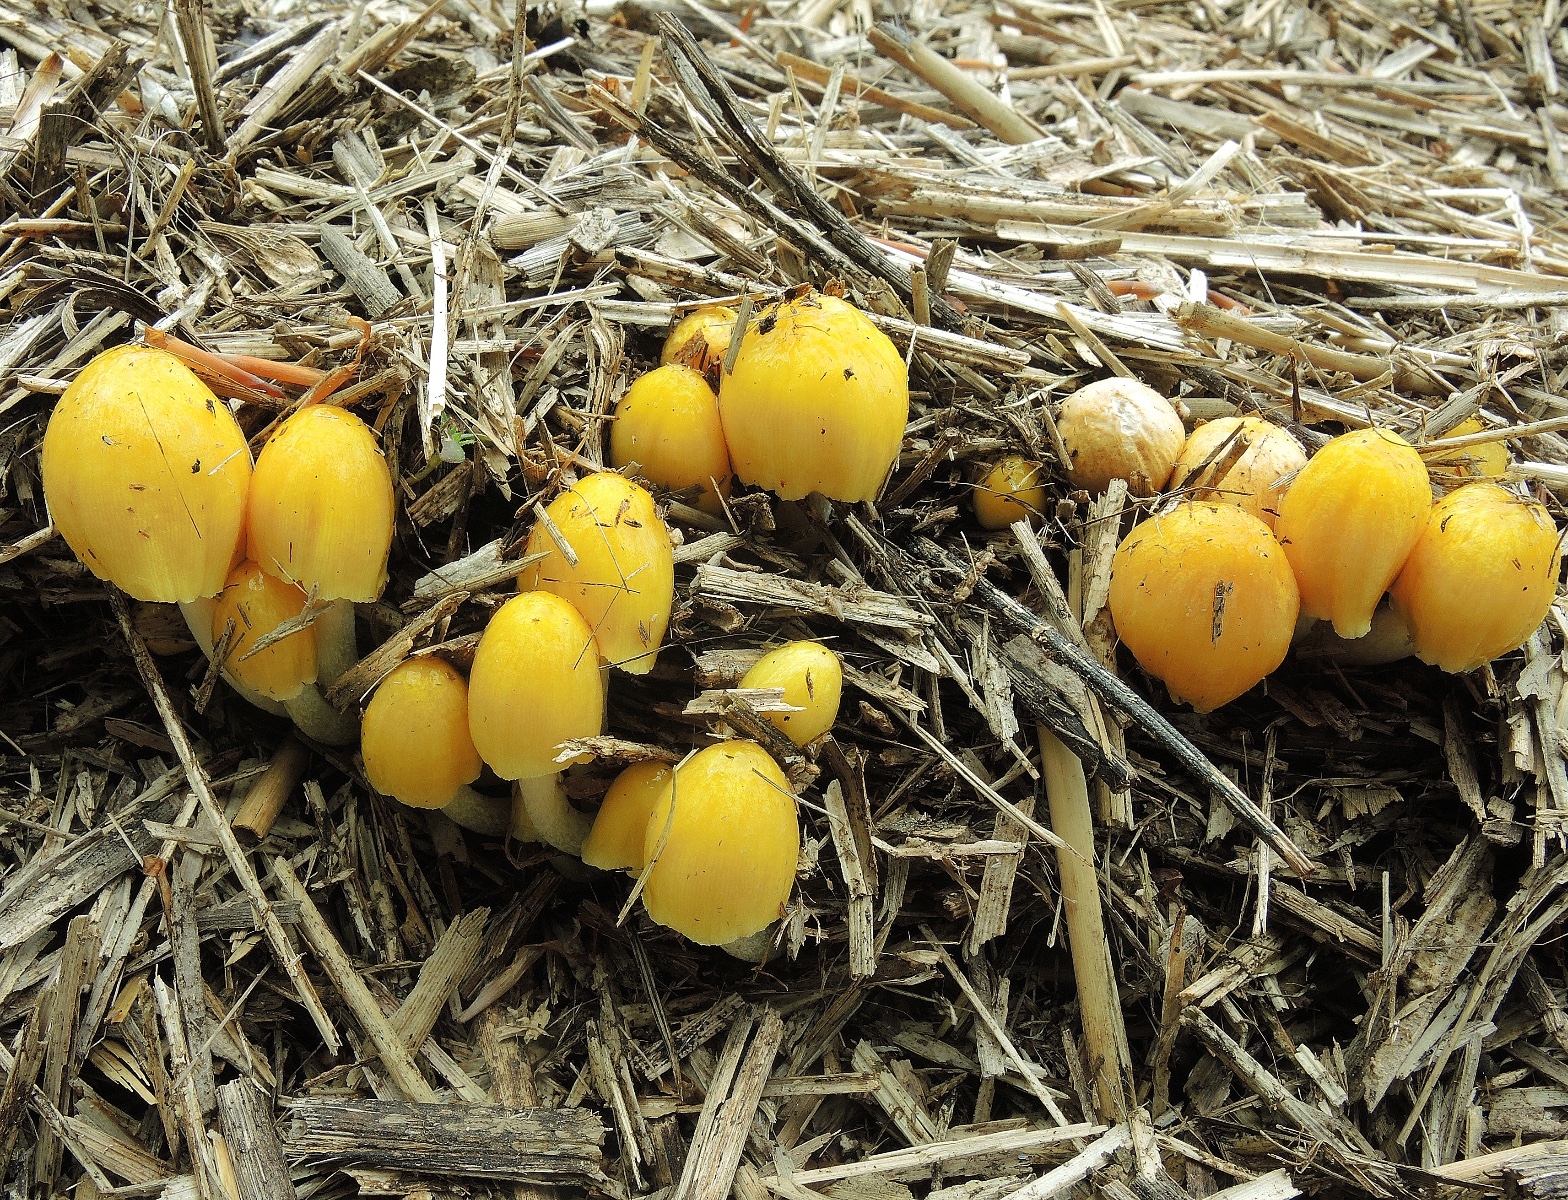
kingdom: Fungi
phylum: Basidiomycota
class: Agaricomycetes
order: Agaricales
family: Bolbitiaceae
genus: Bolbitius
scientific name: Bolbitius titubans
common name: almindelig gulhat
